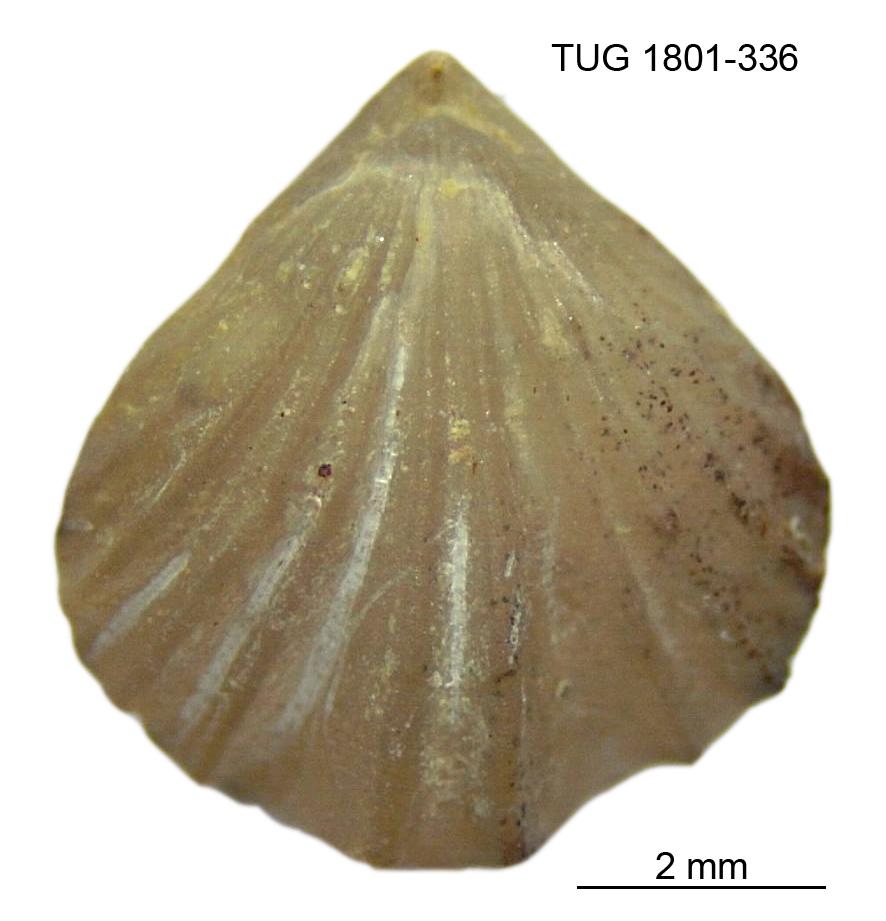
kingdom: Animalia
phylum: Brachiopoda
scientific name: Brachiopoda
